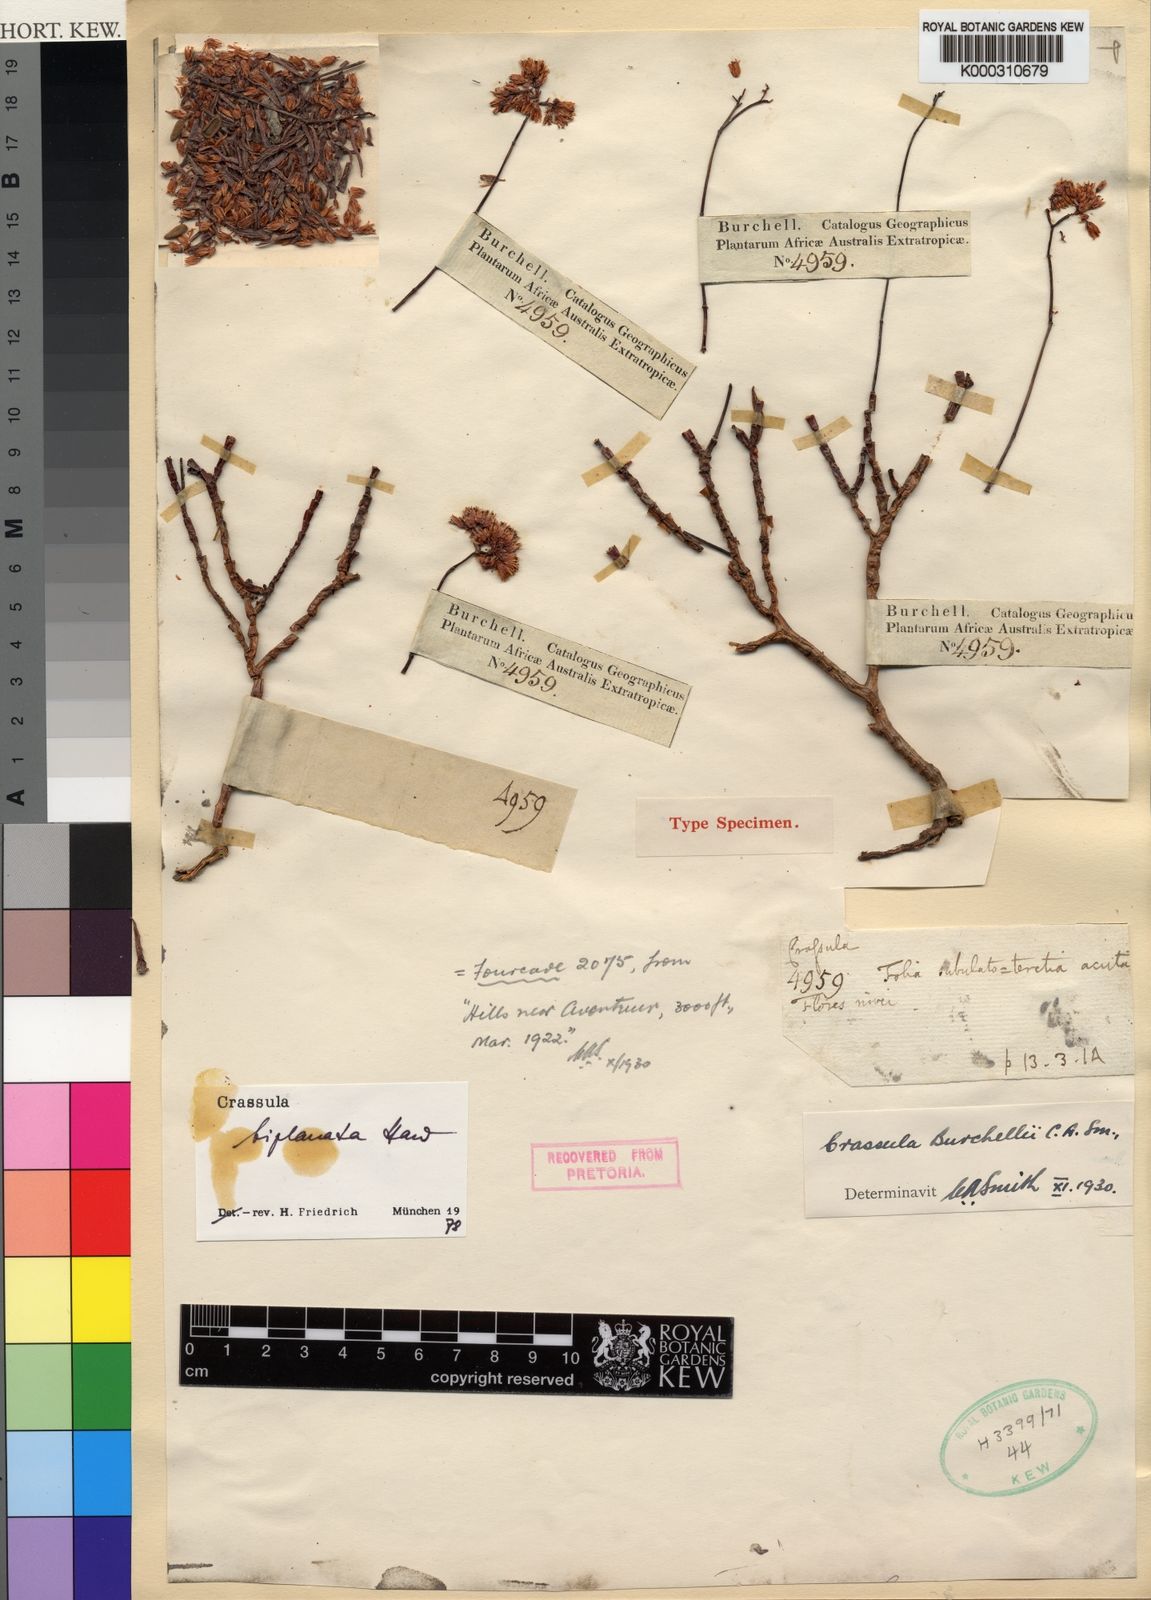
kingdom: Plantae
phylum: Tracheophyta
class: Magnoliopsida
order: Saxifragales
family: Crassulaceae
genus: Crassula
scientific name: Crassula biplanata
